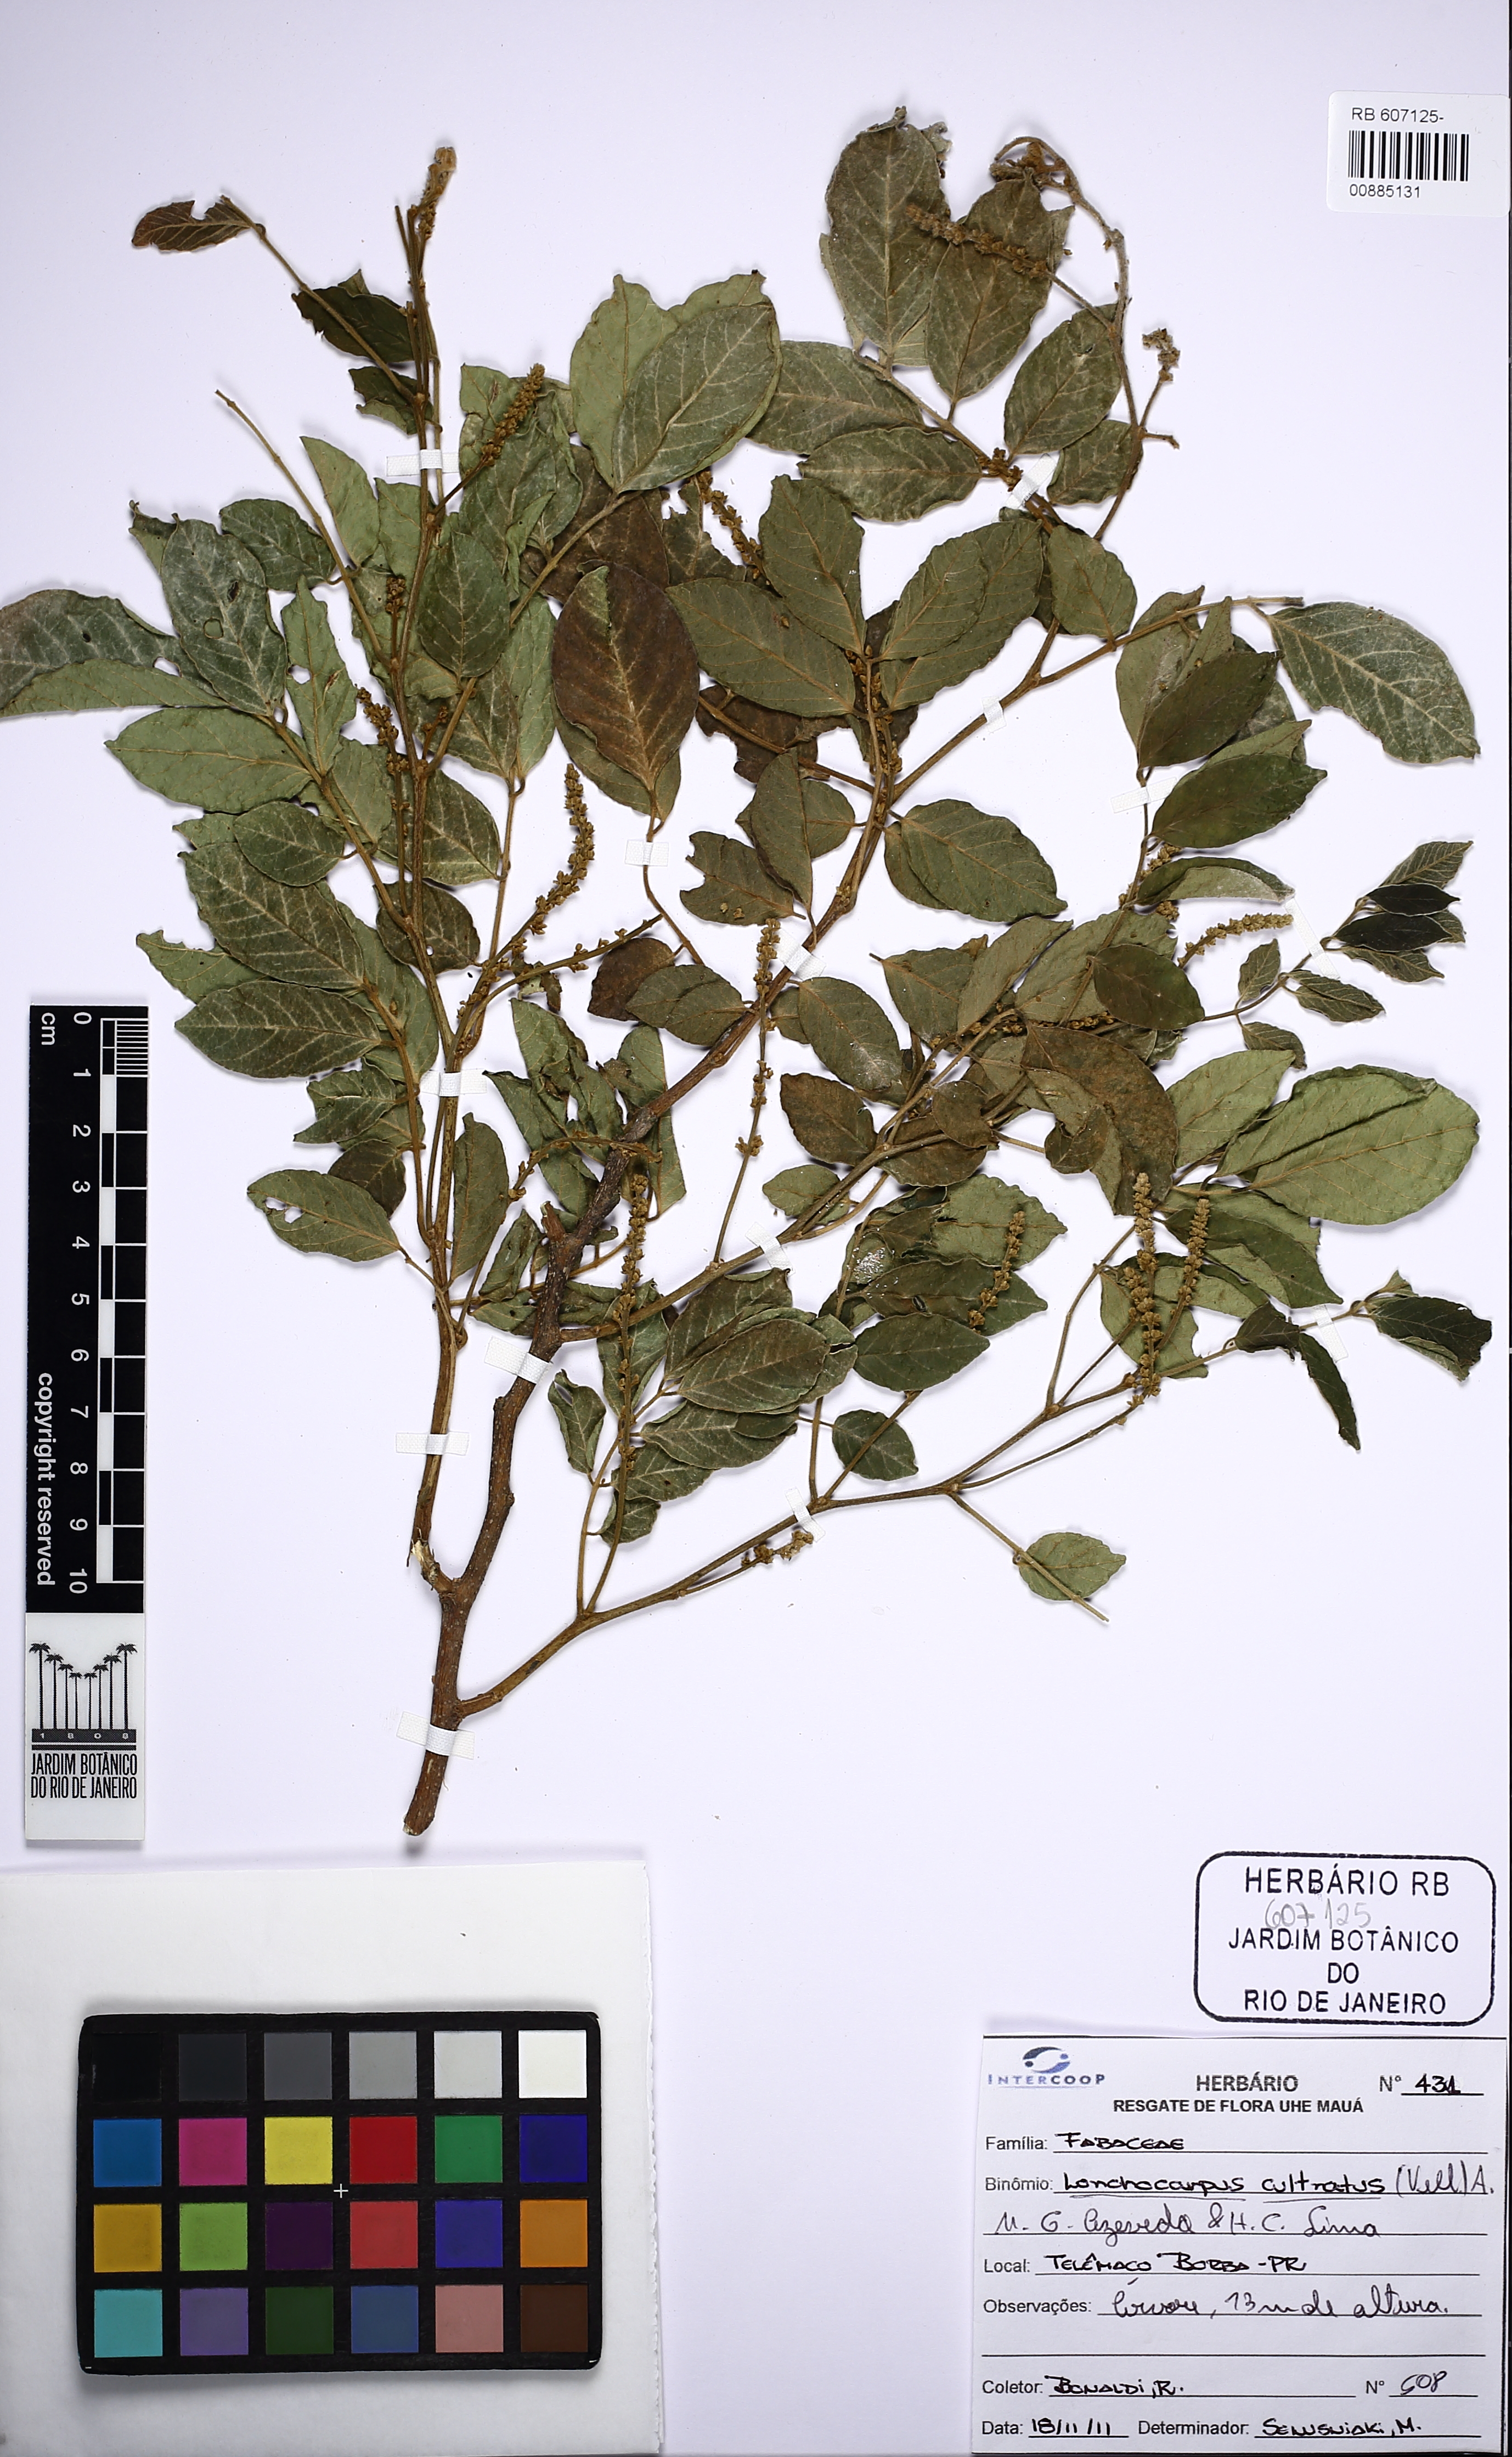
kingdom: Plantae
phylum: Tracheophyta
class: Magnoliopsida
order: Fabales
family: Fabaceae
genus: Lonchocarpus
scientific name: Lonchocarpus cultratus
